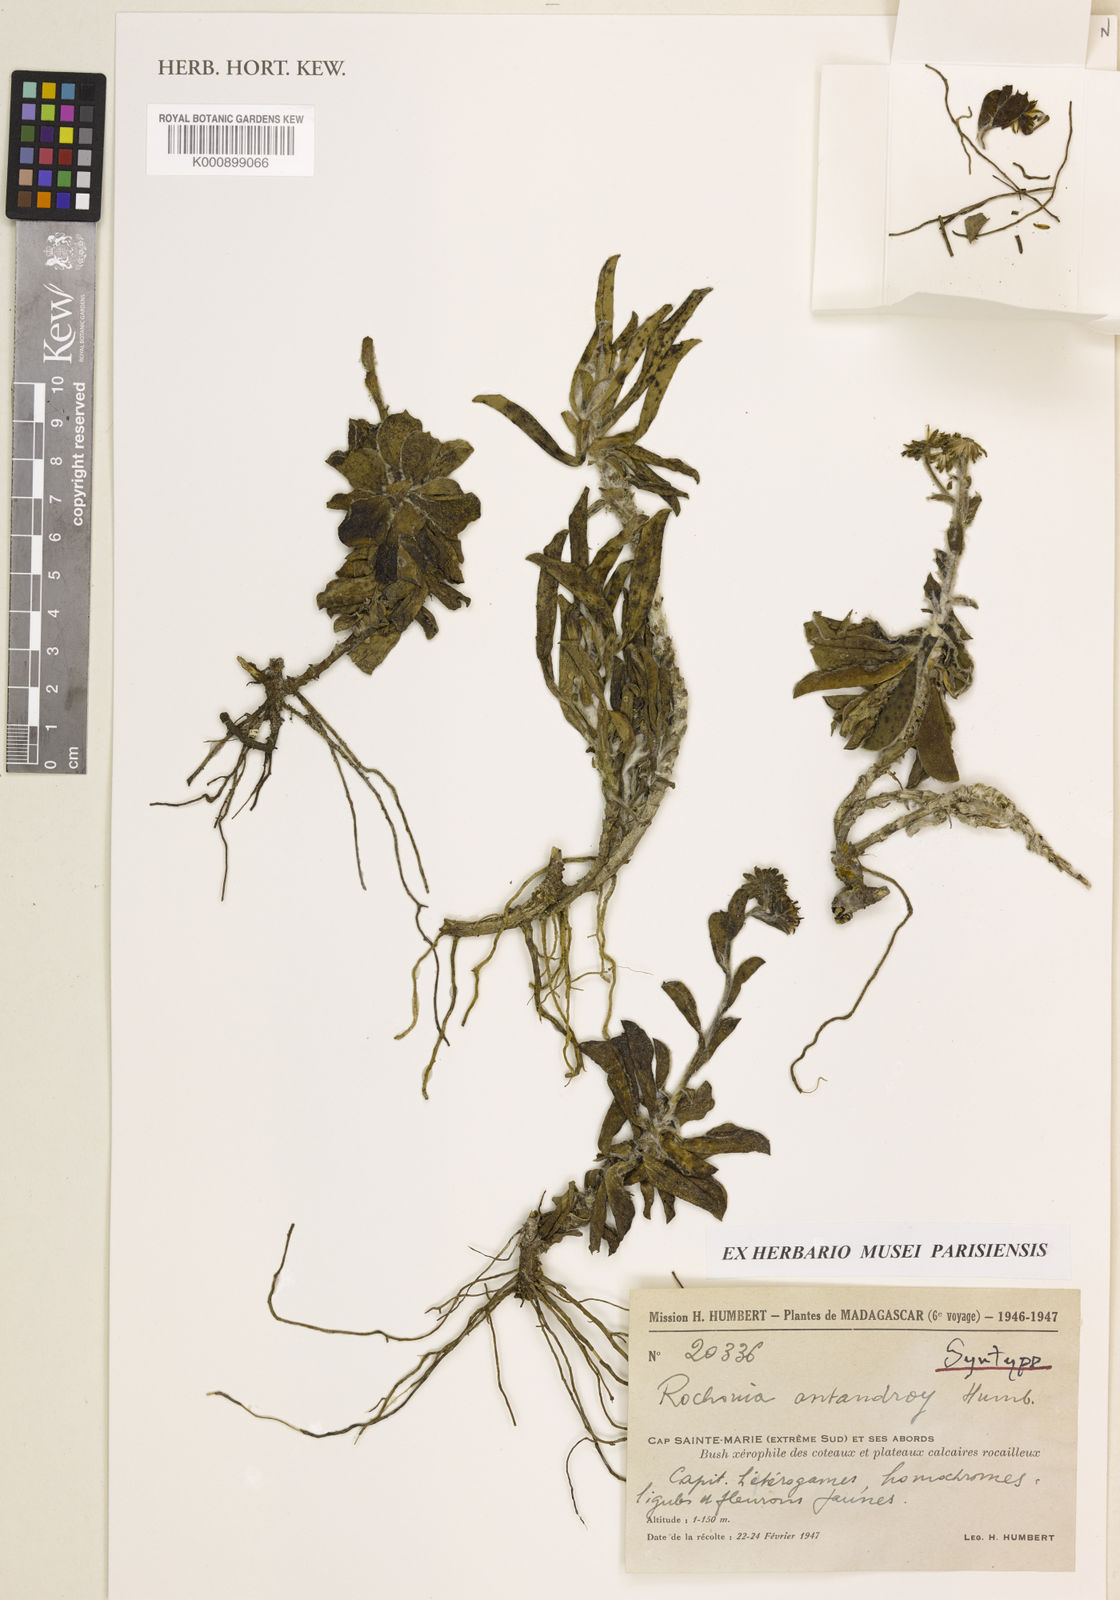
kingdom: Plantae
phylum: Tracheophyta
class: Magnoliopsida
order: Asterales
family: Asteraceae
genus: Rochonia
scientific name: Rochonia antandroy
